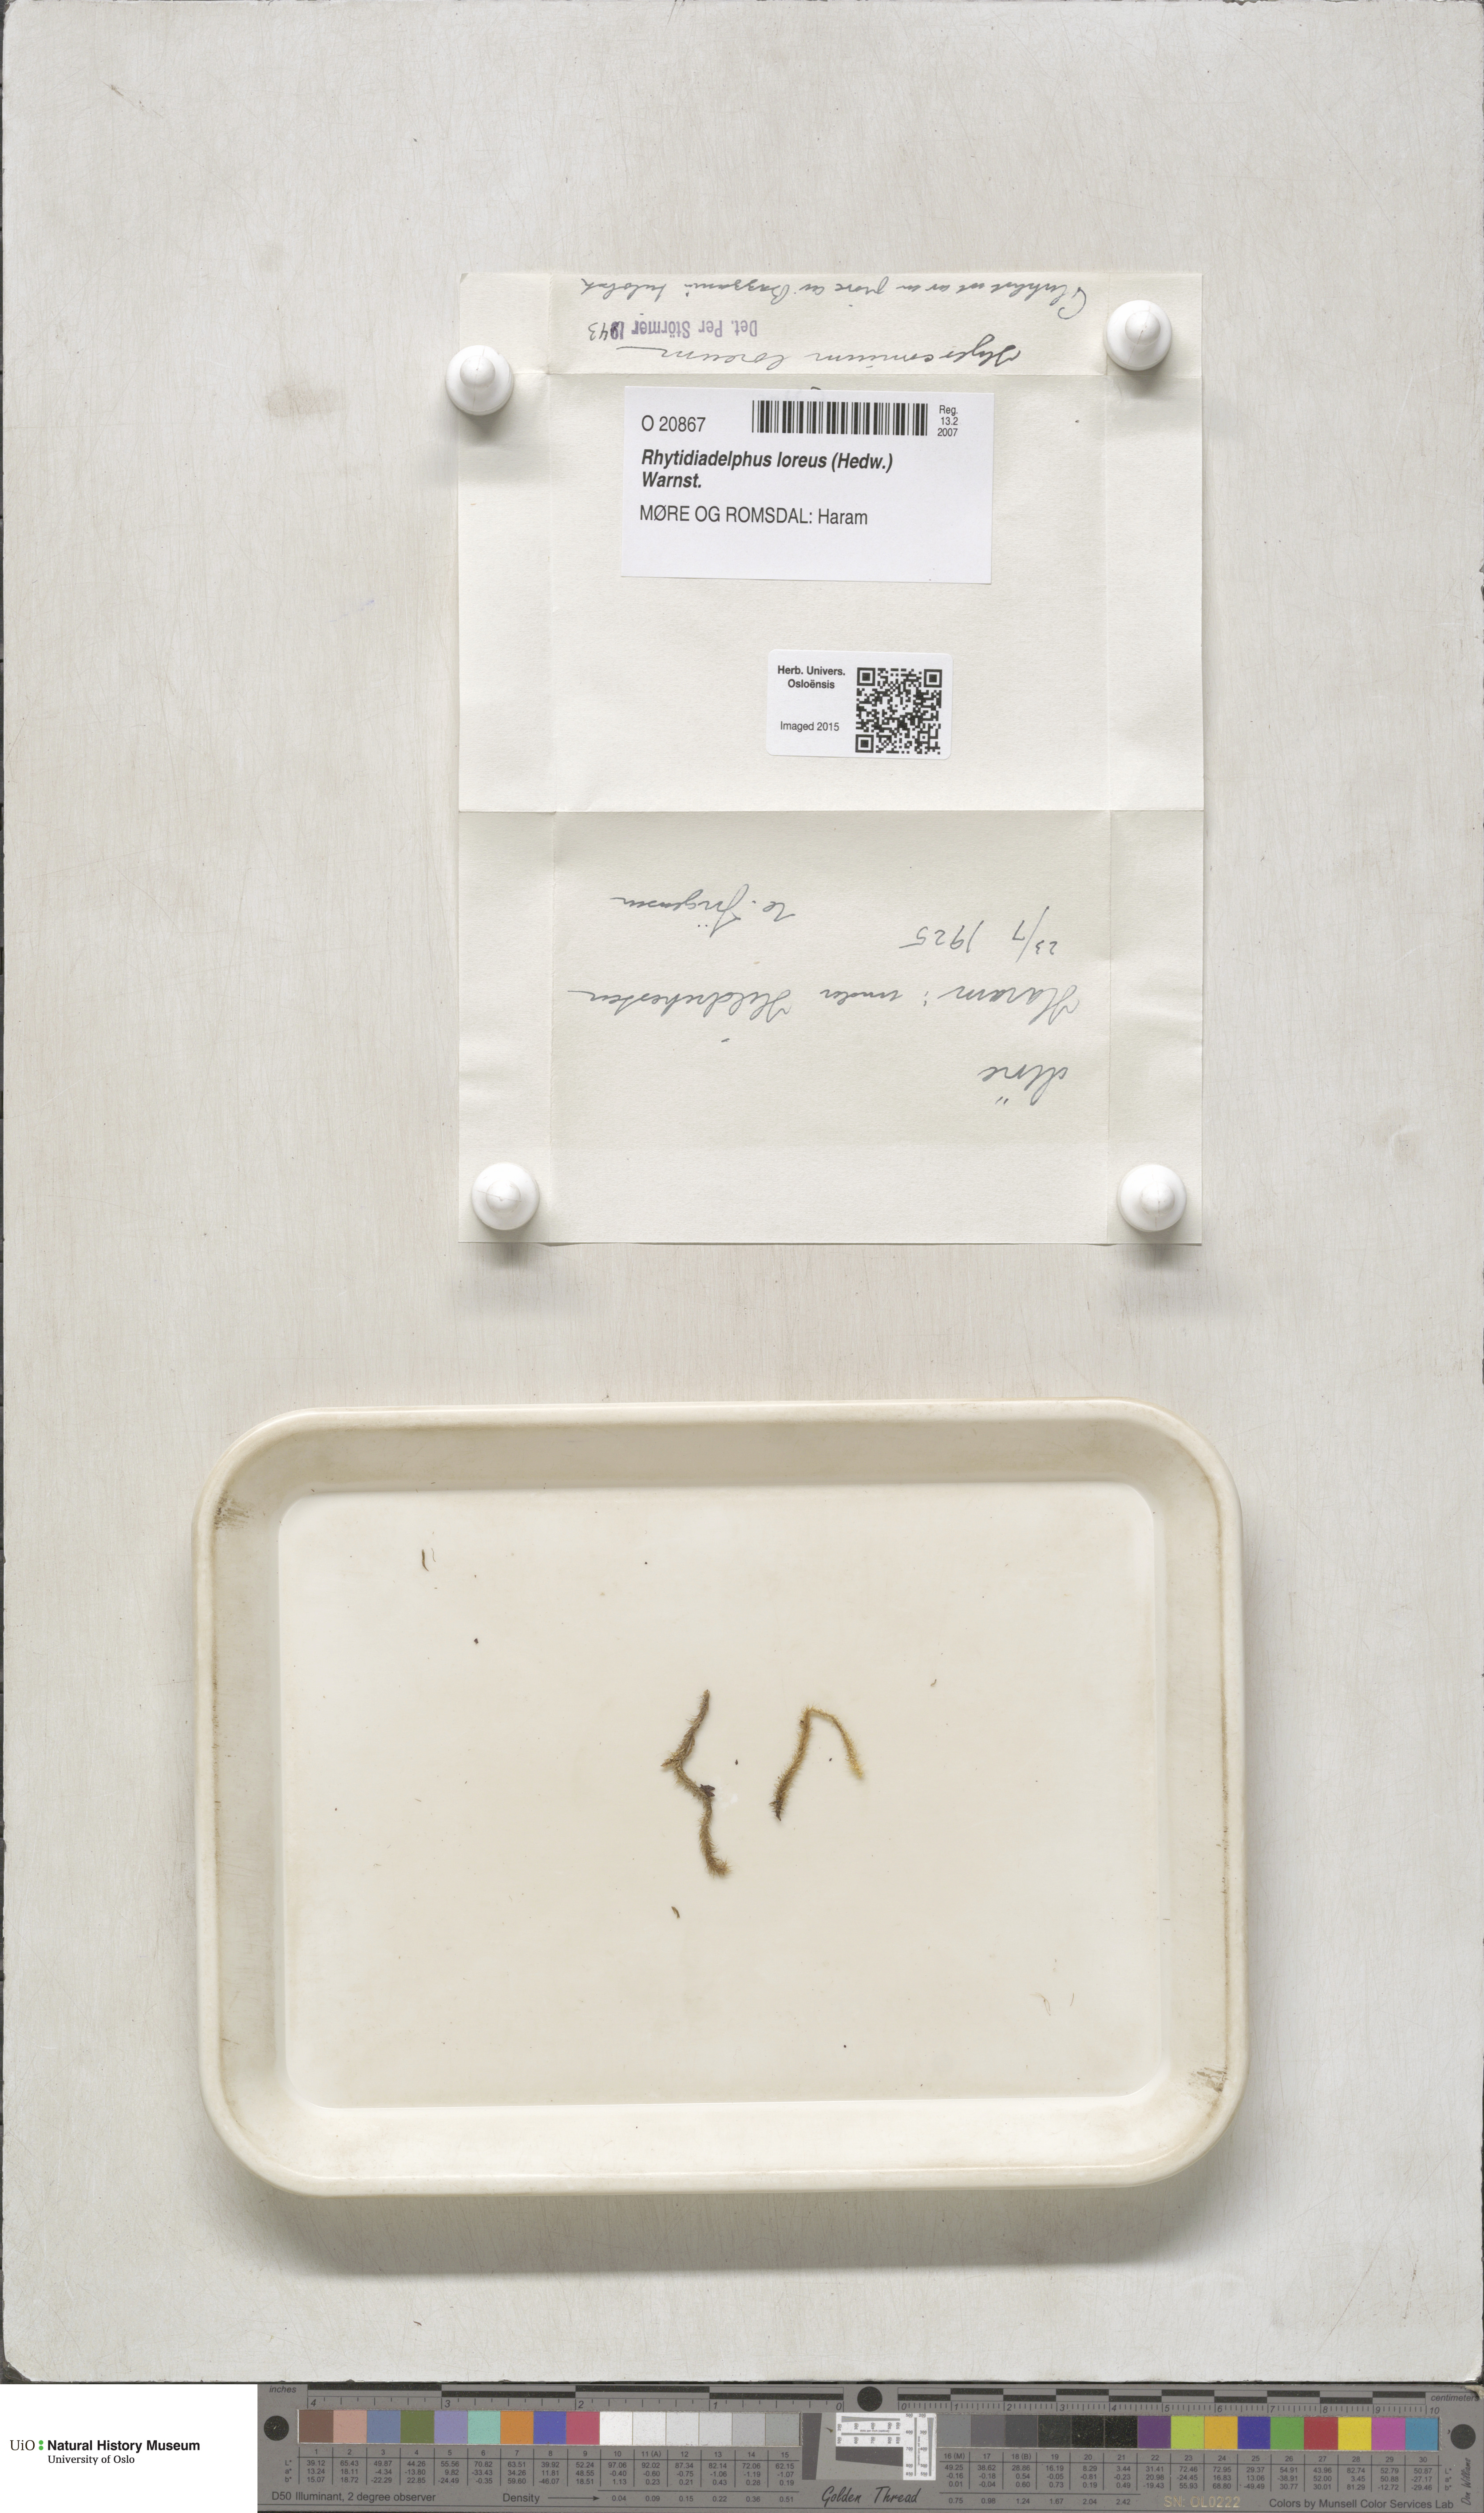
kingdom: Plantae
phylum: Bryophyta
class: Bryopsida
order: Hypnales
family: Hylocomiaceae
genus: Rhytidiadelphus
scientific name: Rhytidiadelphus loreus
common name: Lanky moss
